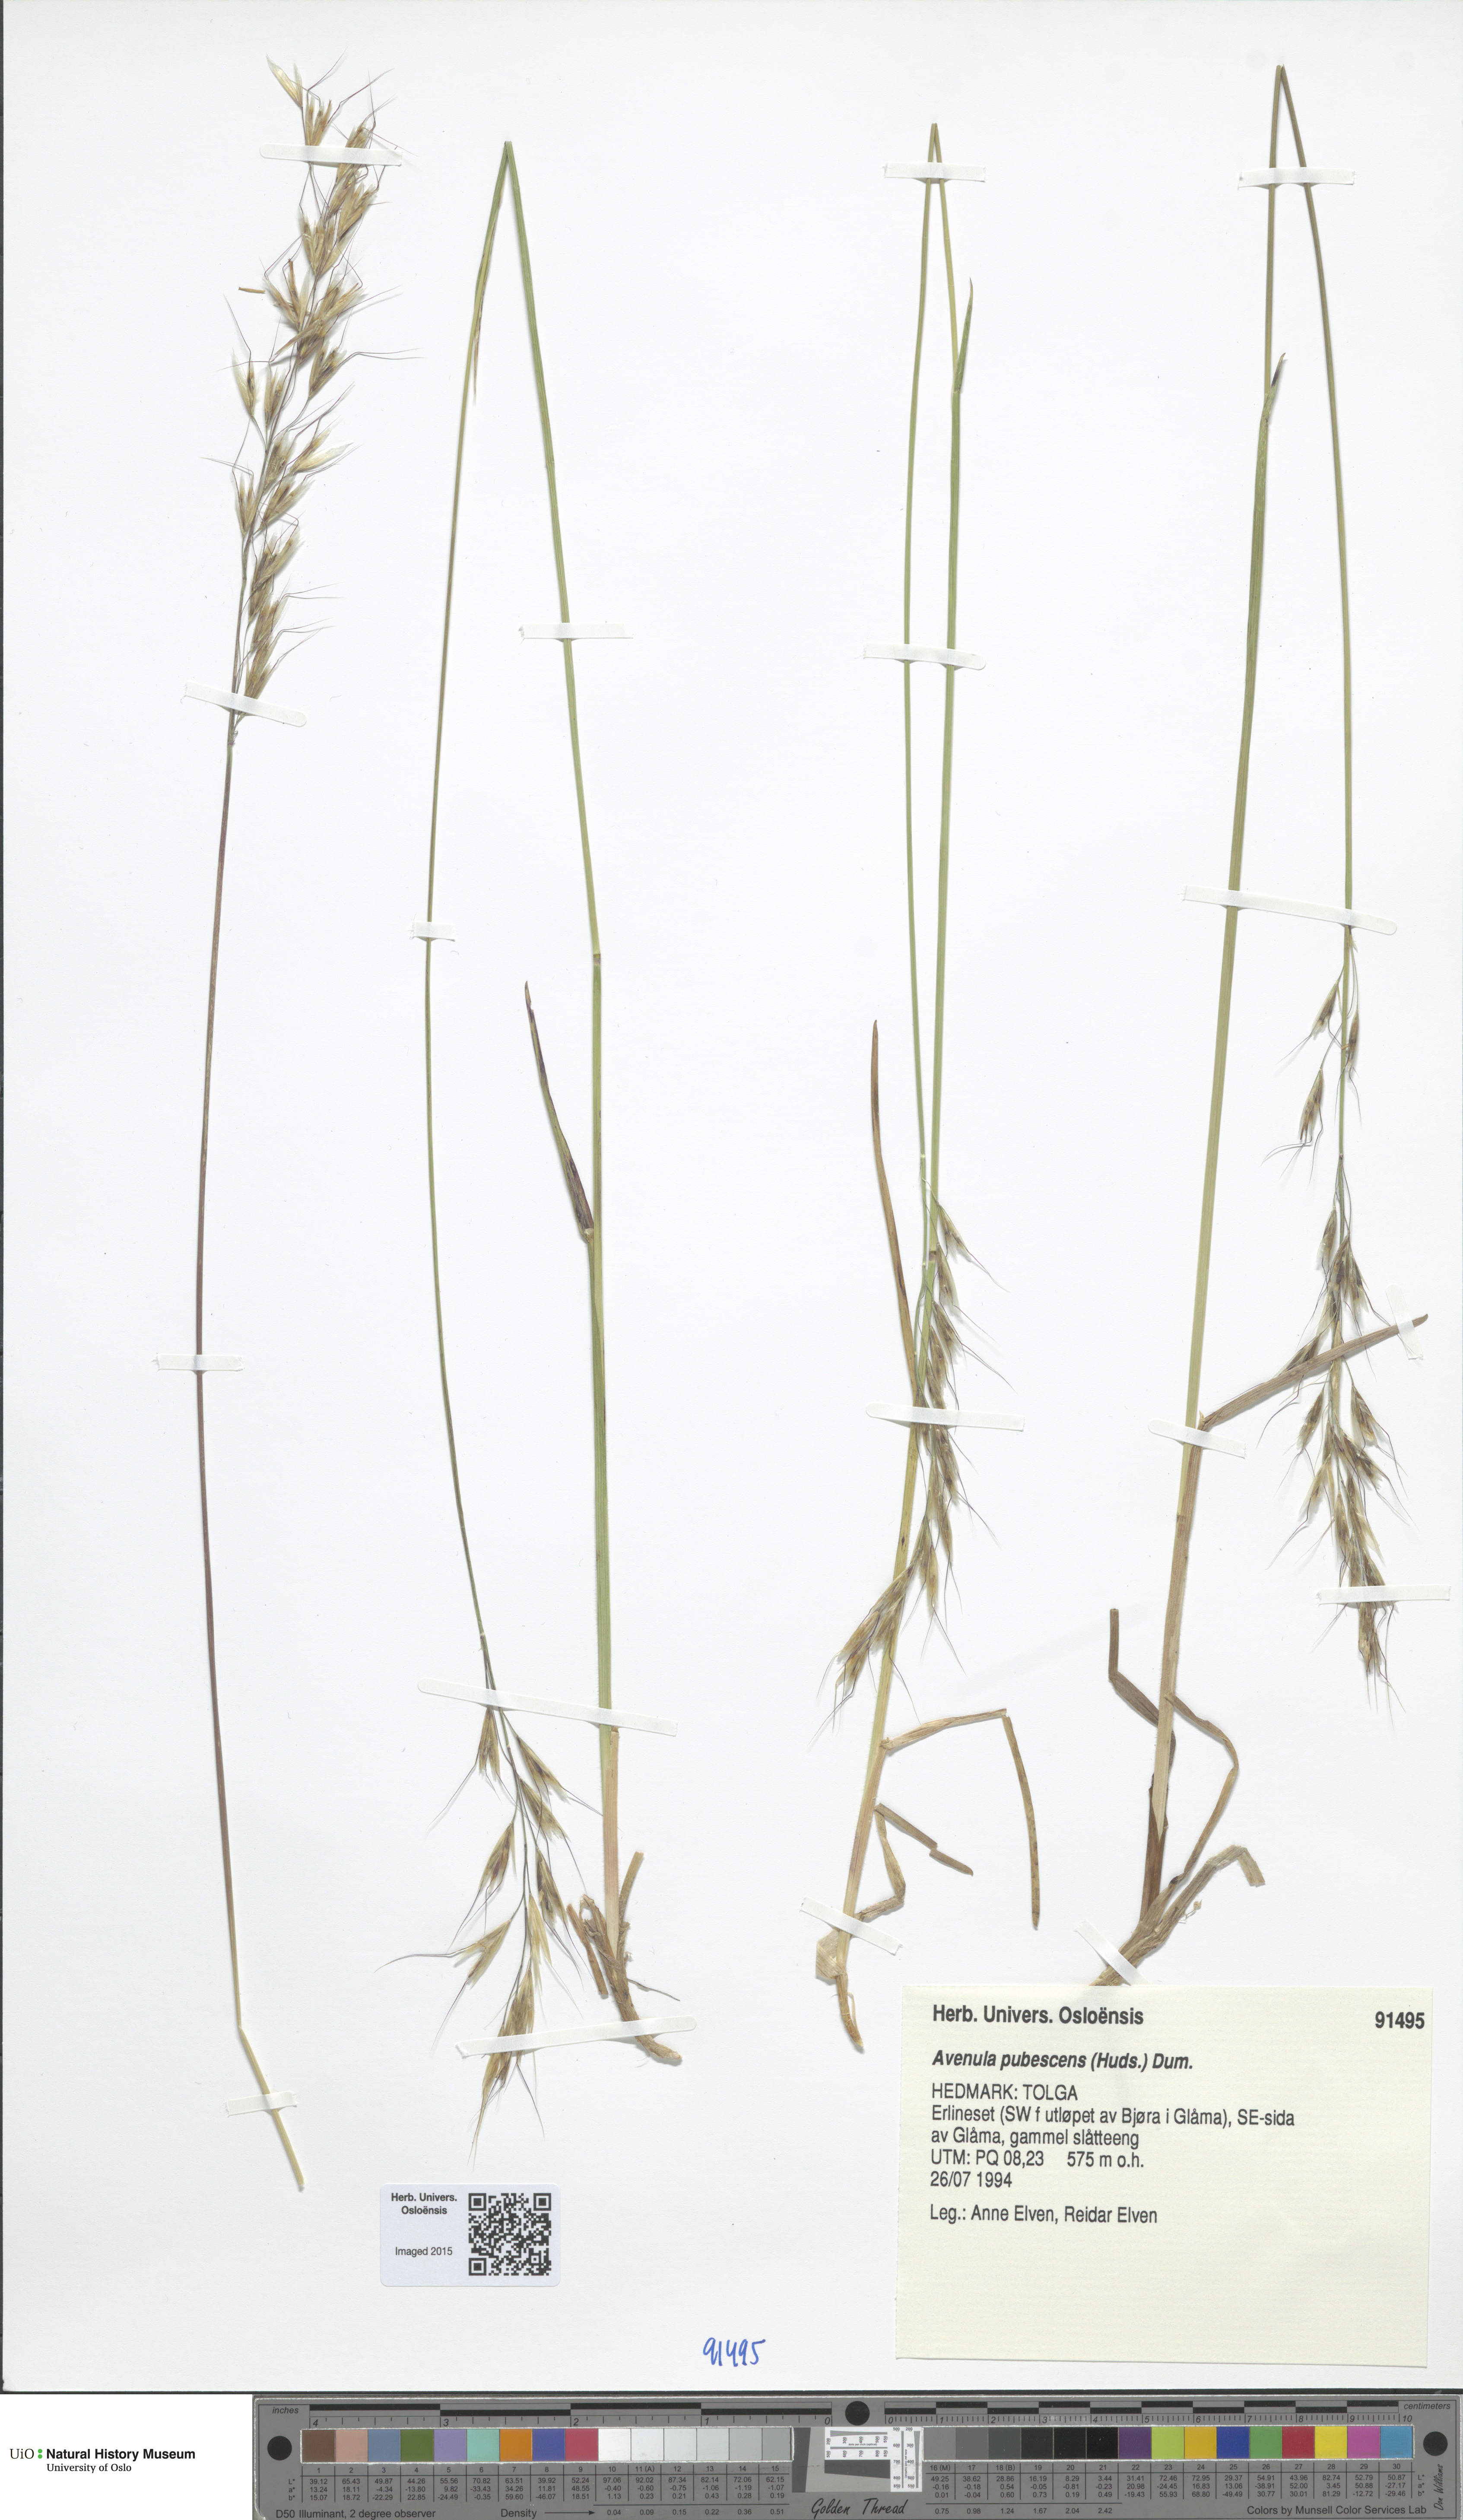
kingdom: Plantae
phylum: Tracheophyta
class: Liliopsida
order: Poales
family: Poaceae
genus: Avenula
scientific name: Avenula pubescens
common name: Downy alpine oatgrass
